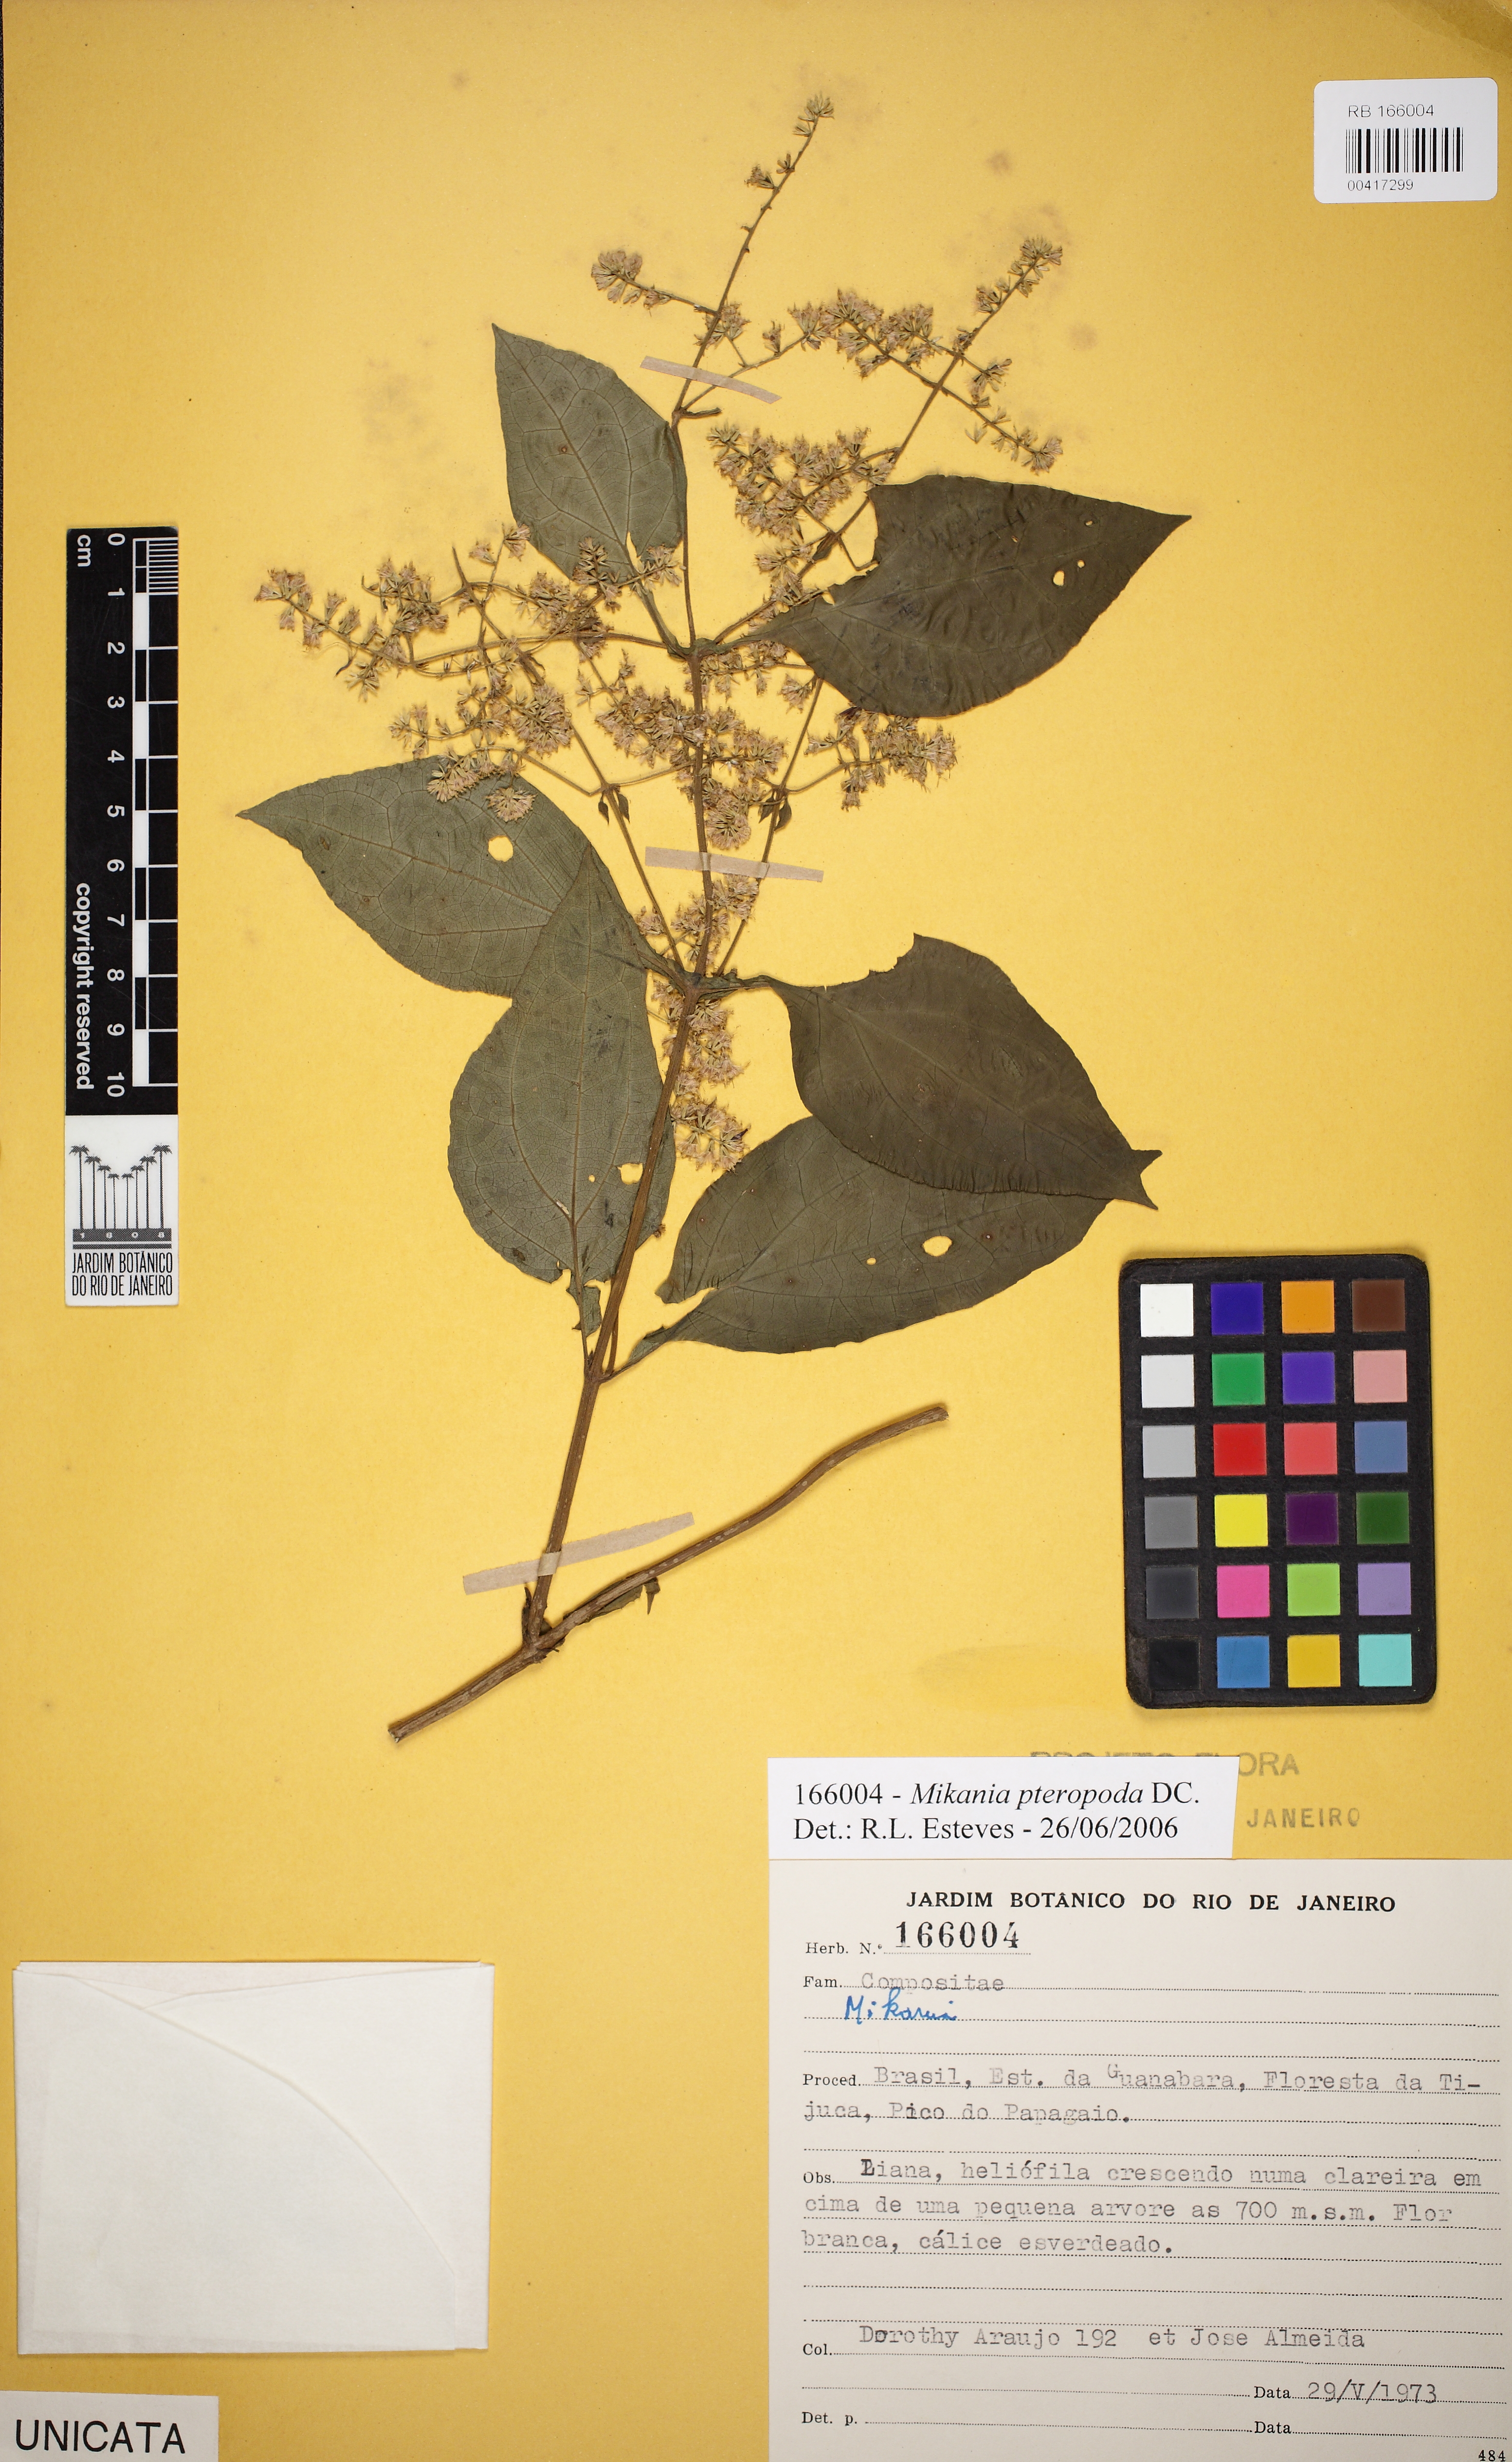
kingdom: Plantae
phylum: Tracheophyta
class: Magnoliopsida
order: Asterales
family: Asteraceae
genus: Mikania
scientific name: Mikania pteropoda
